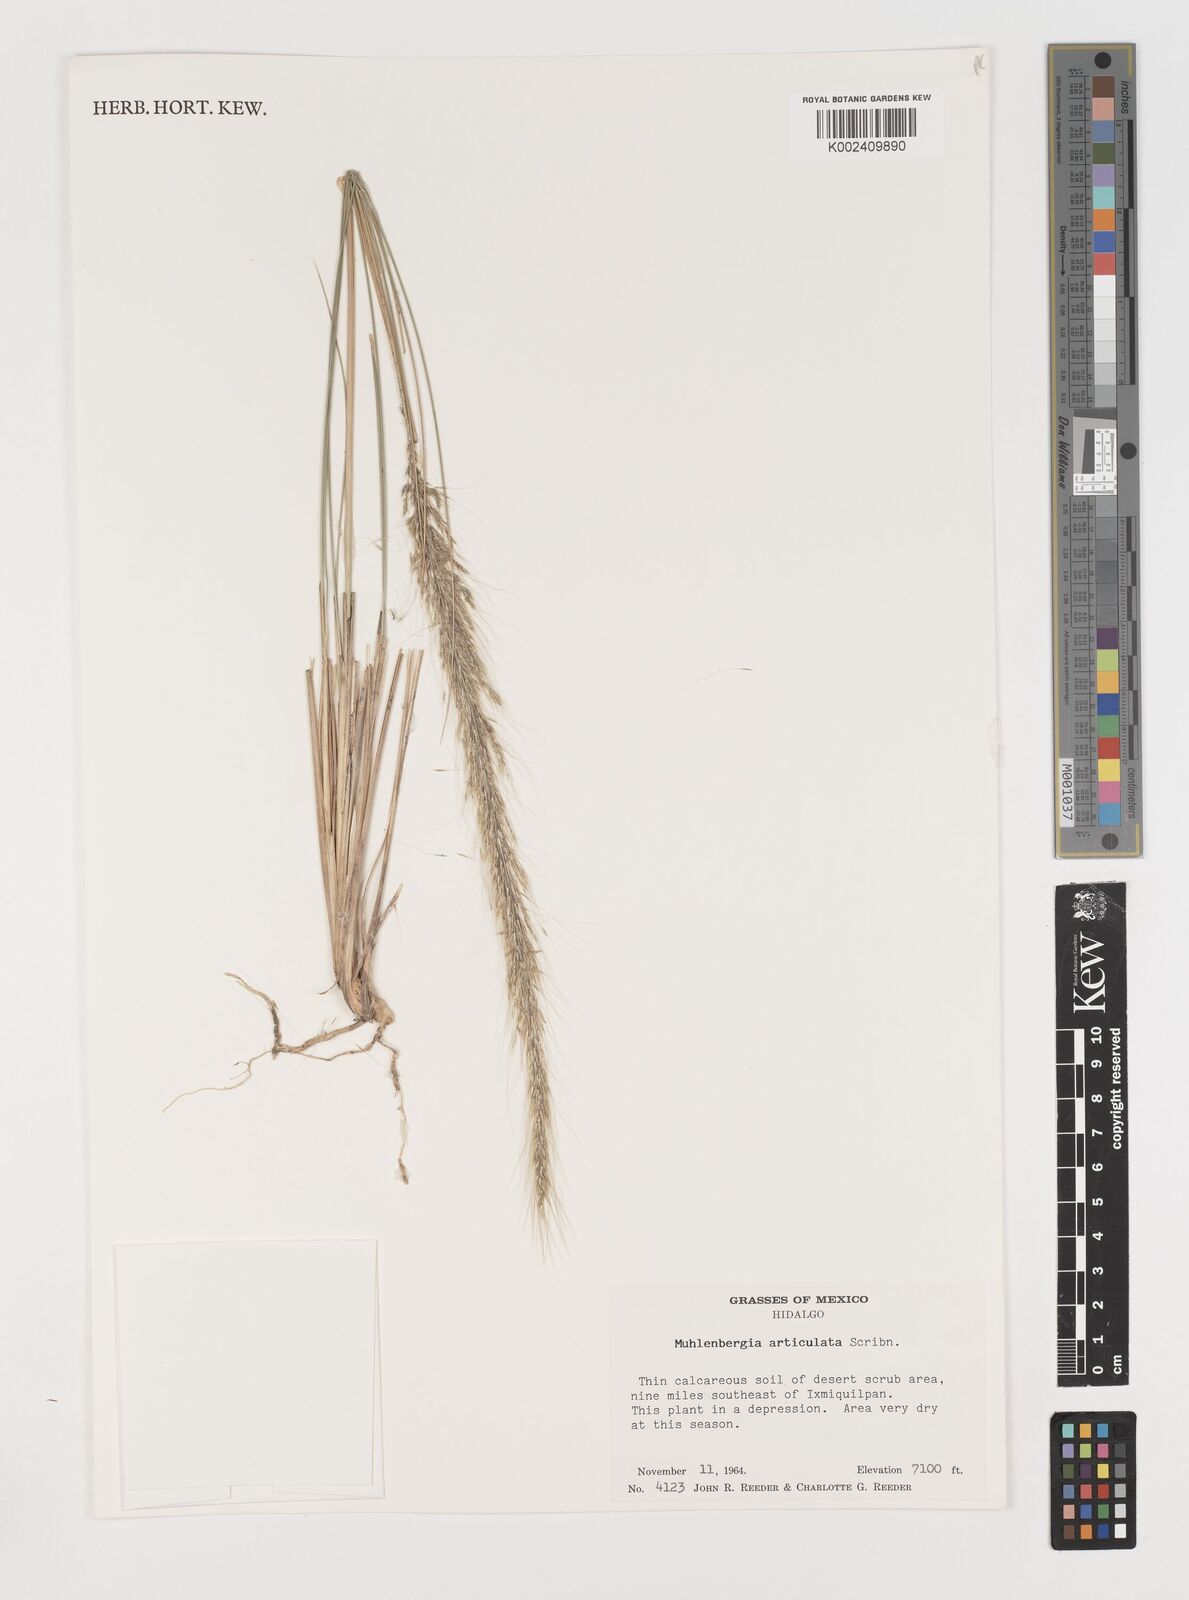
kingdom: Plantae
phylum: Tracheophyta
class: Liliopsida
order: Poales
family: Poaceae
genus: Muhlenbergia
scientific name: Muhlenbergia articulata
